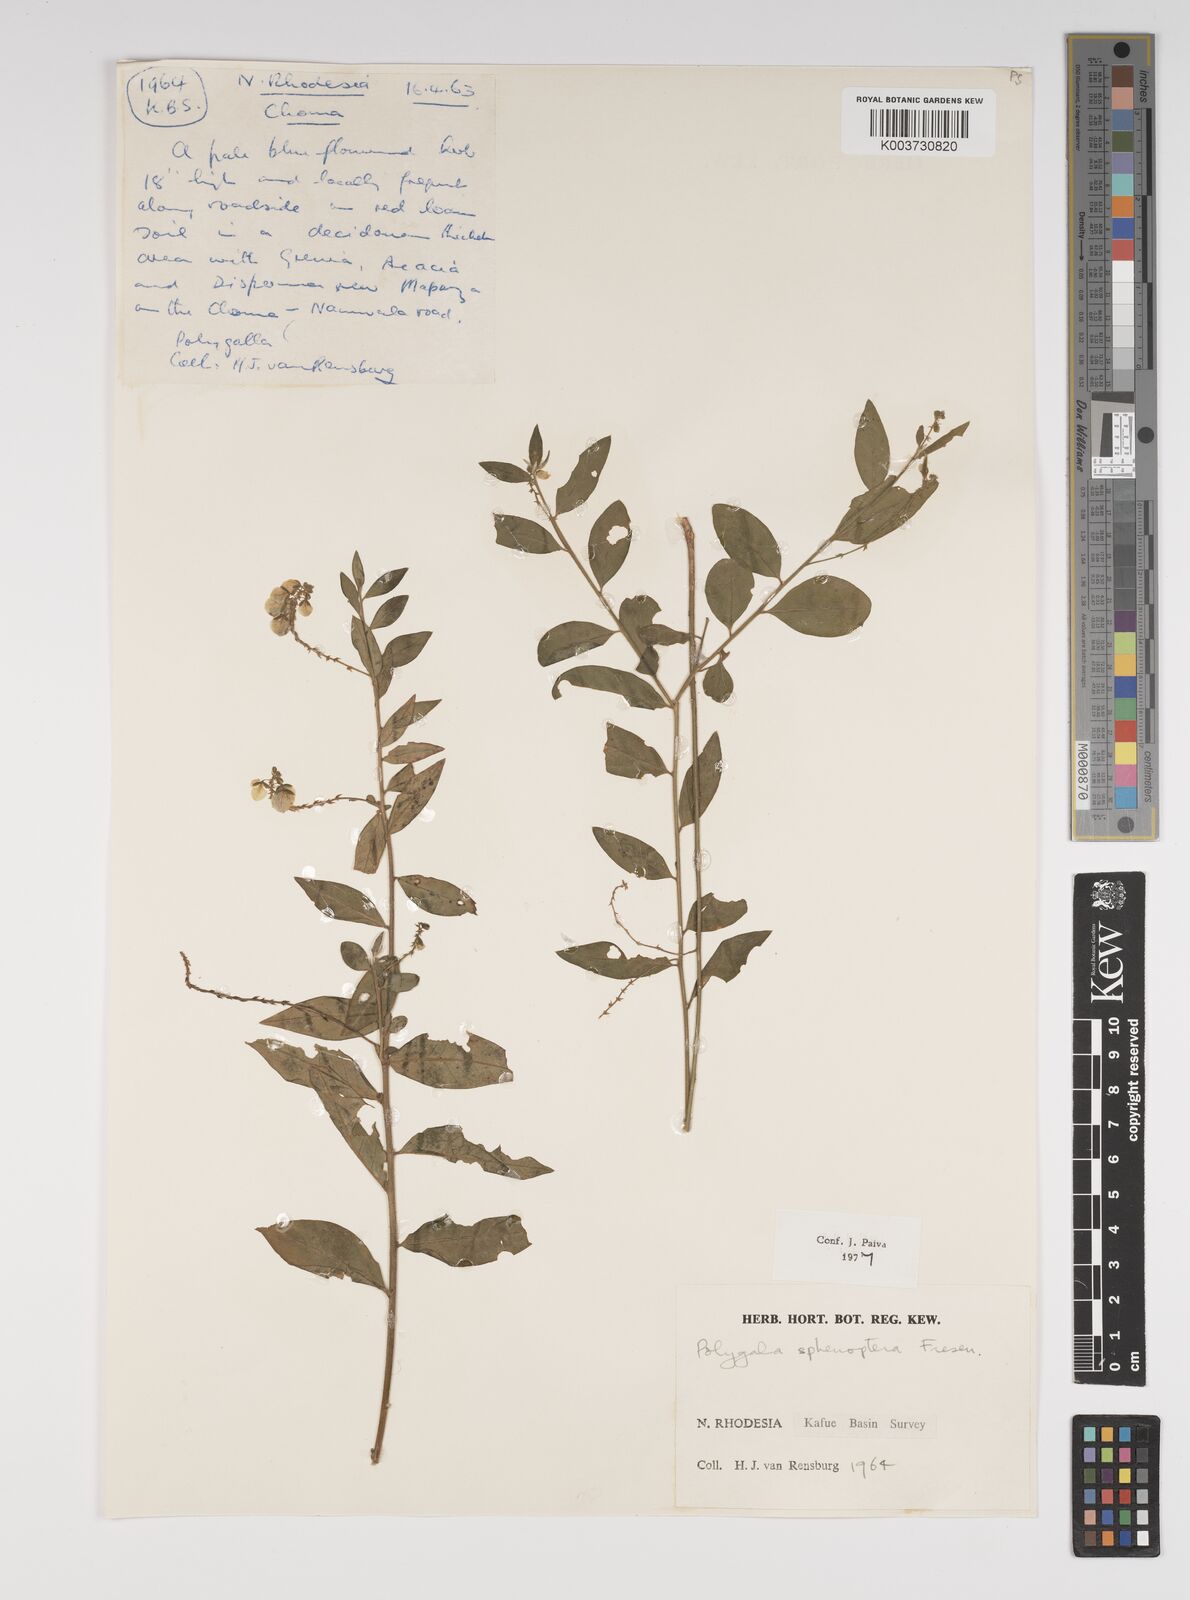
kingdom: Plantae
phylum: Tracheophyta
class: Magnoliopsida
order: Fabales
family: Polygalaceae
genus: Polygala
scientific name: Polygala sphenoptera
